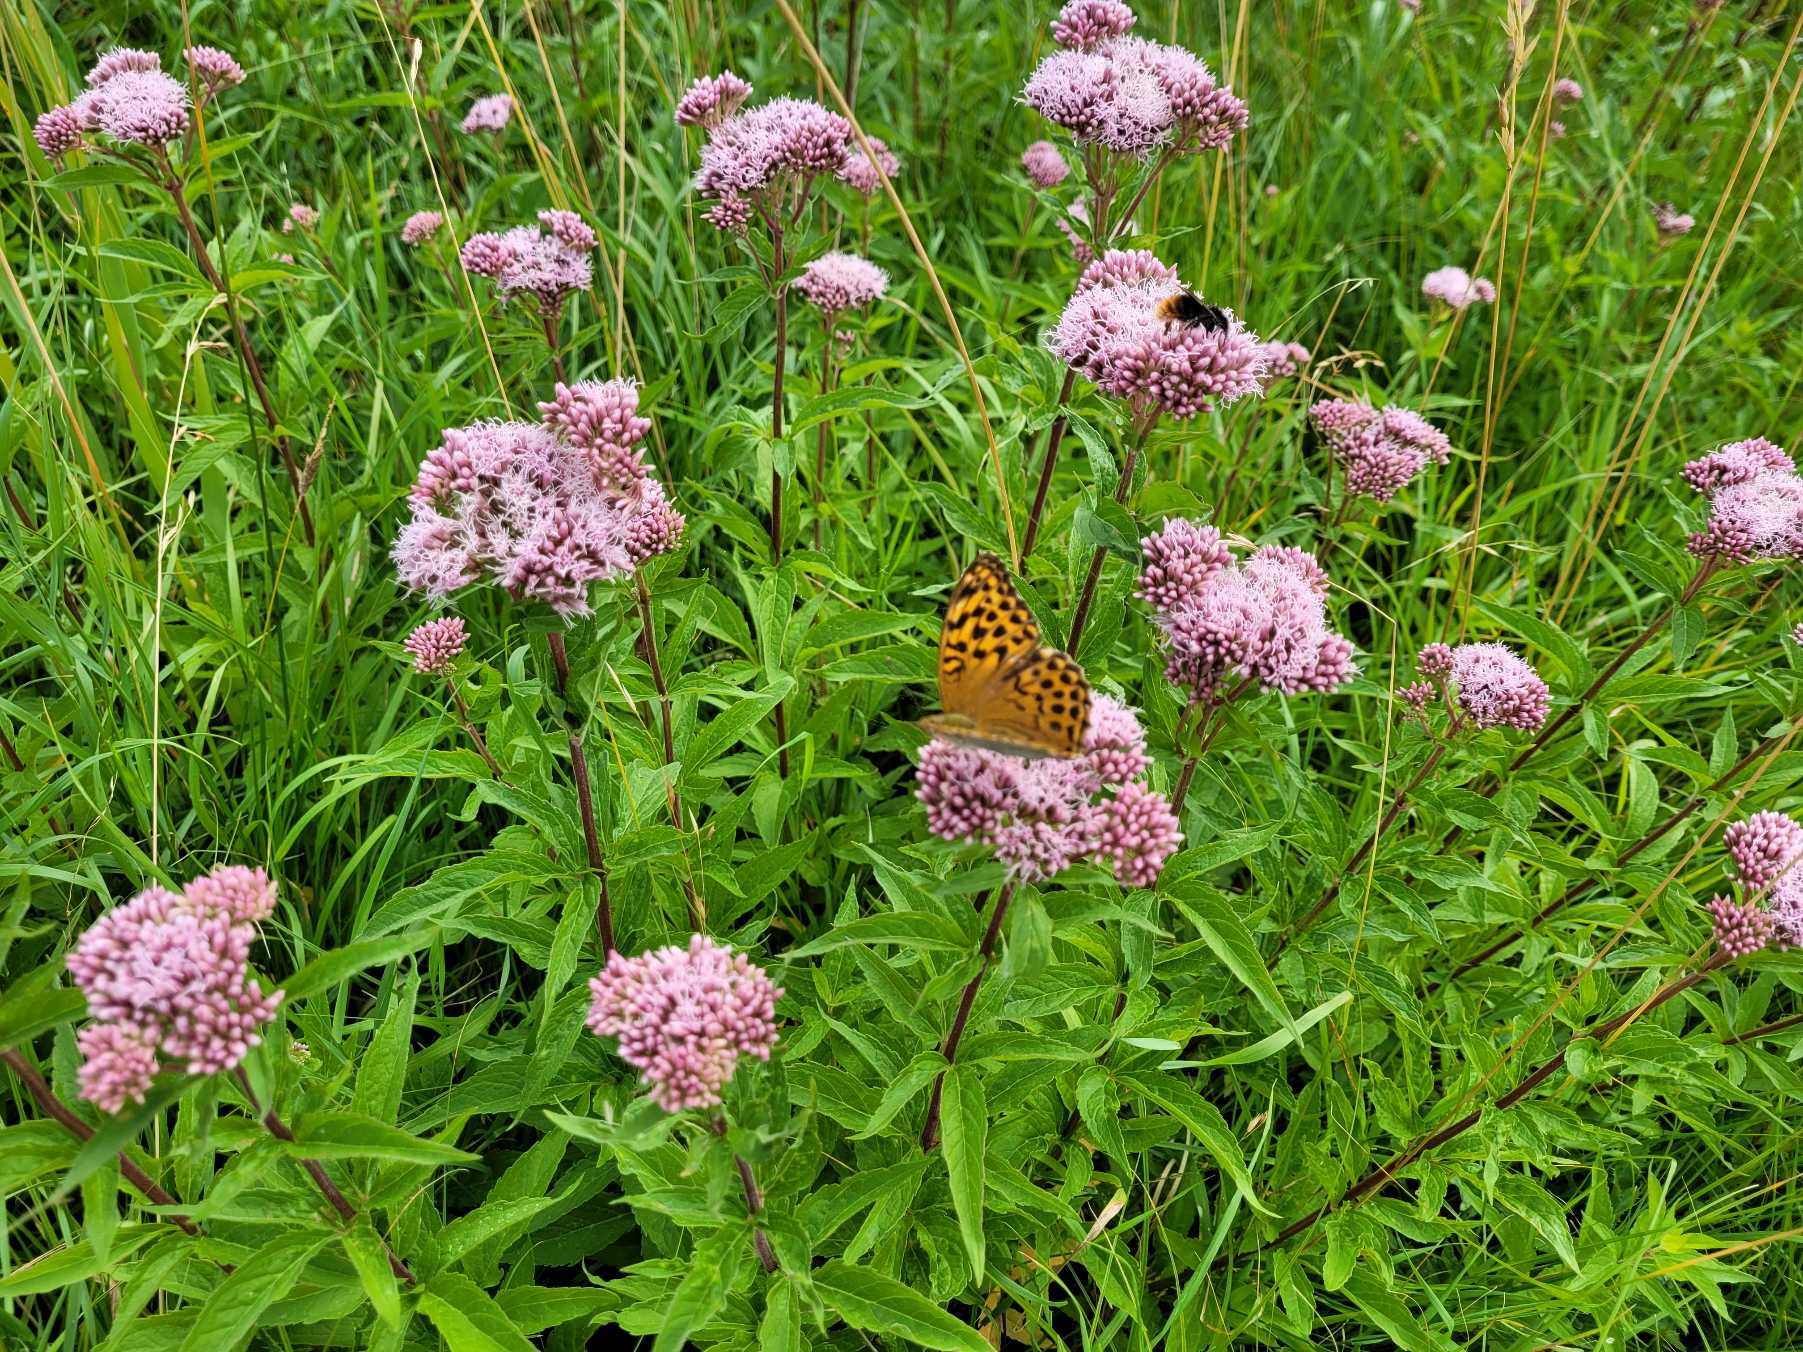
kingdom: Animalia
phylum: Arthropoda
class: Insecta
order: Lepidoptera
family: Nymphalidae
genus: Argynnis
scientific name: Argynnis paphia
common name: Kejserkåbe
